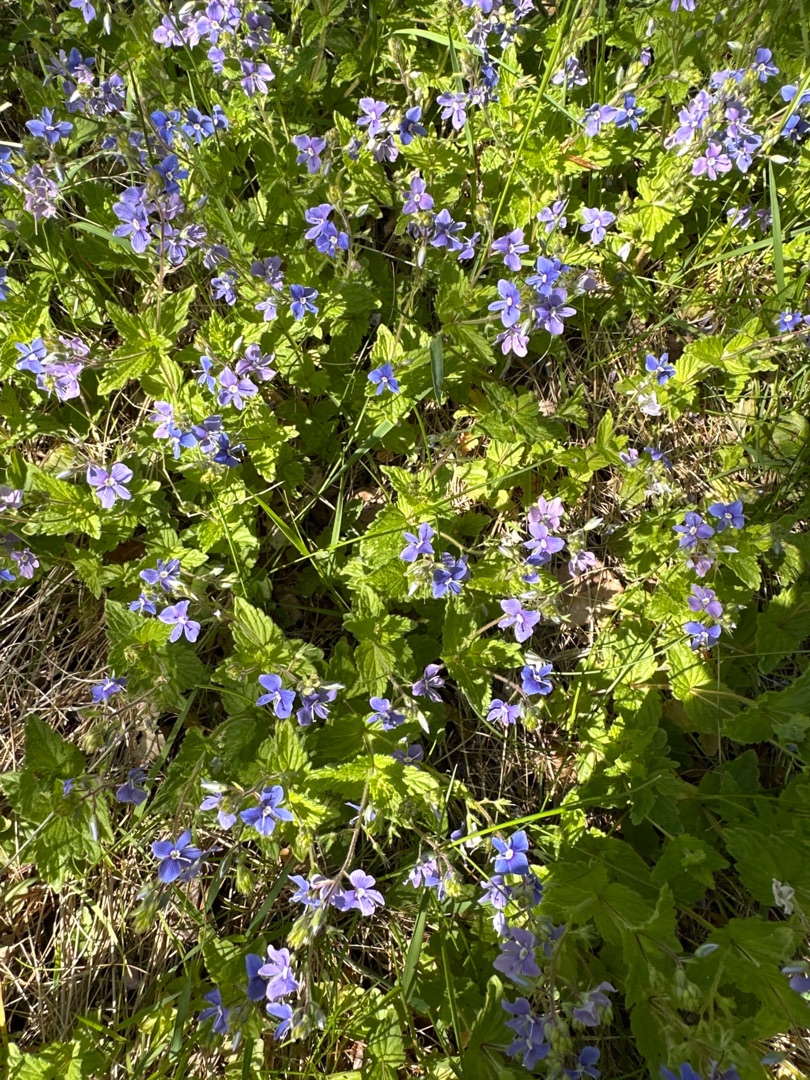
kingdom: Plantae
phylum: Tracheophyta
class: Magnoliopsida
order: Lamiales
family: Plantaginaceae
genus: Veronica
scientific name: Veronica chamaedrys
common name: Tveskægget ærenpris
